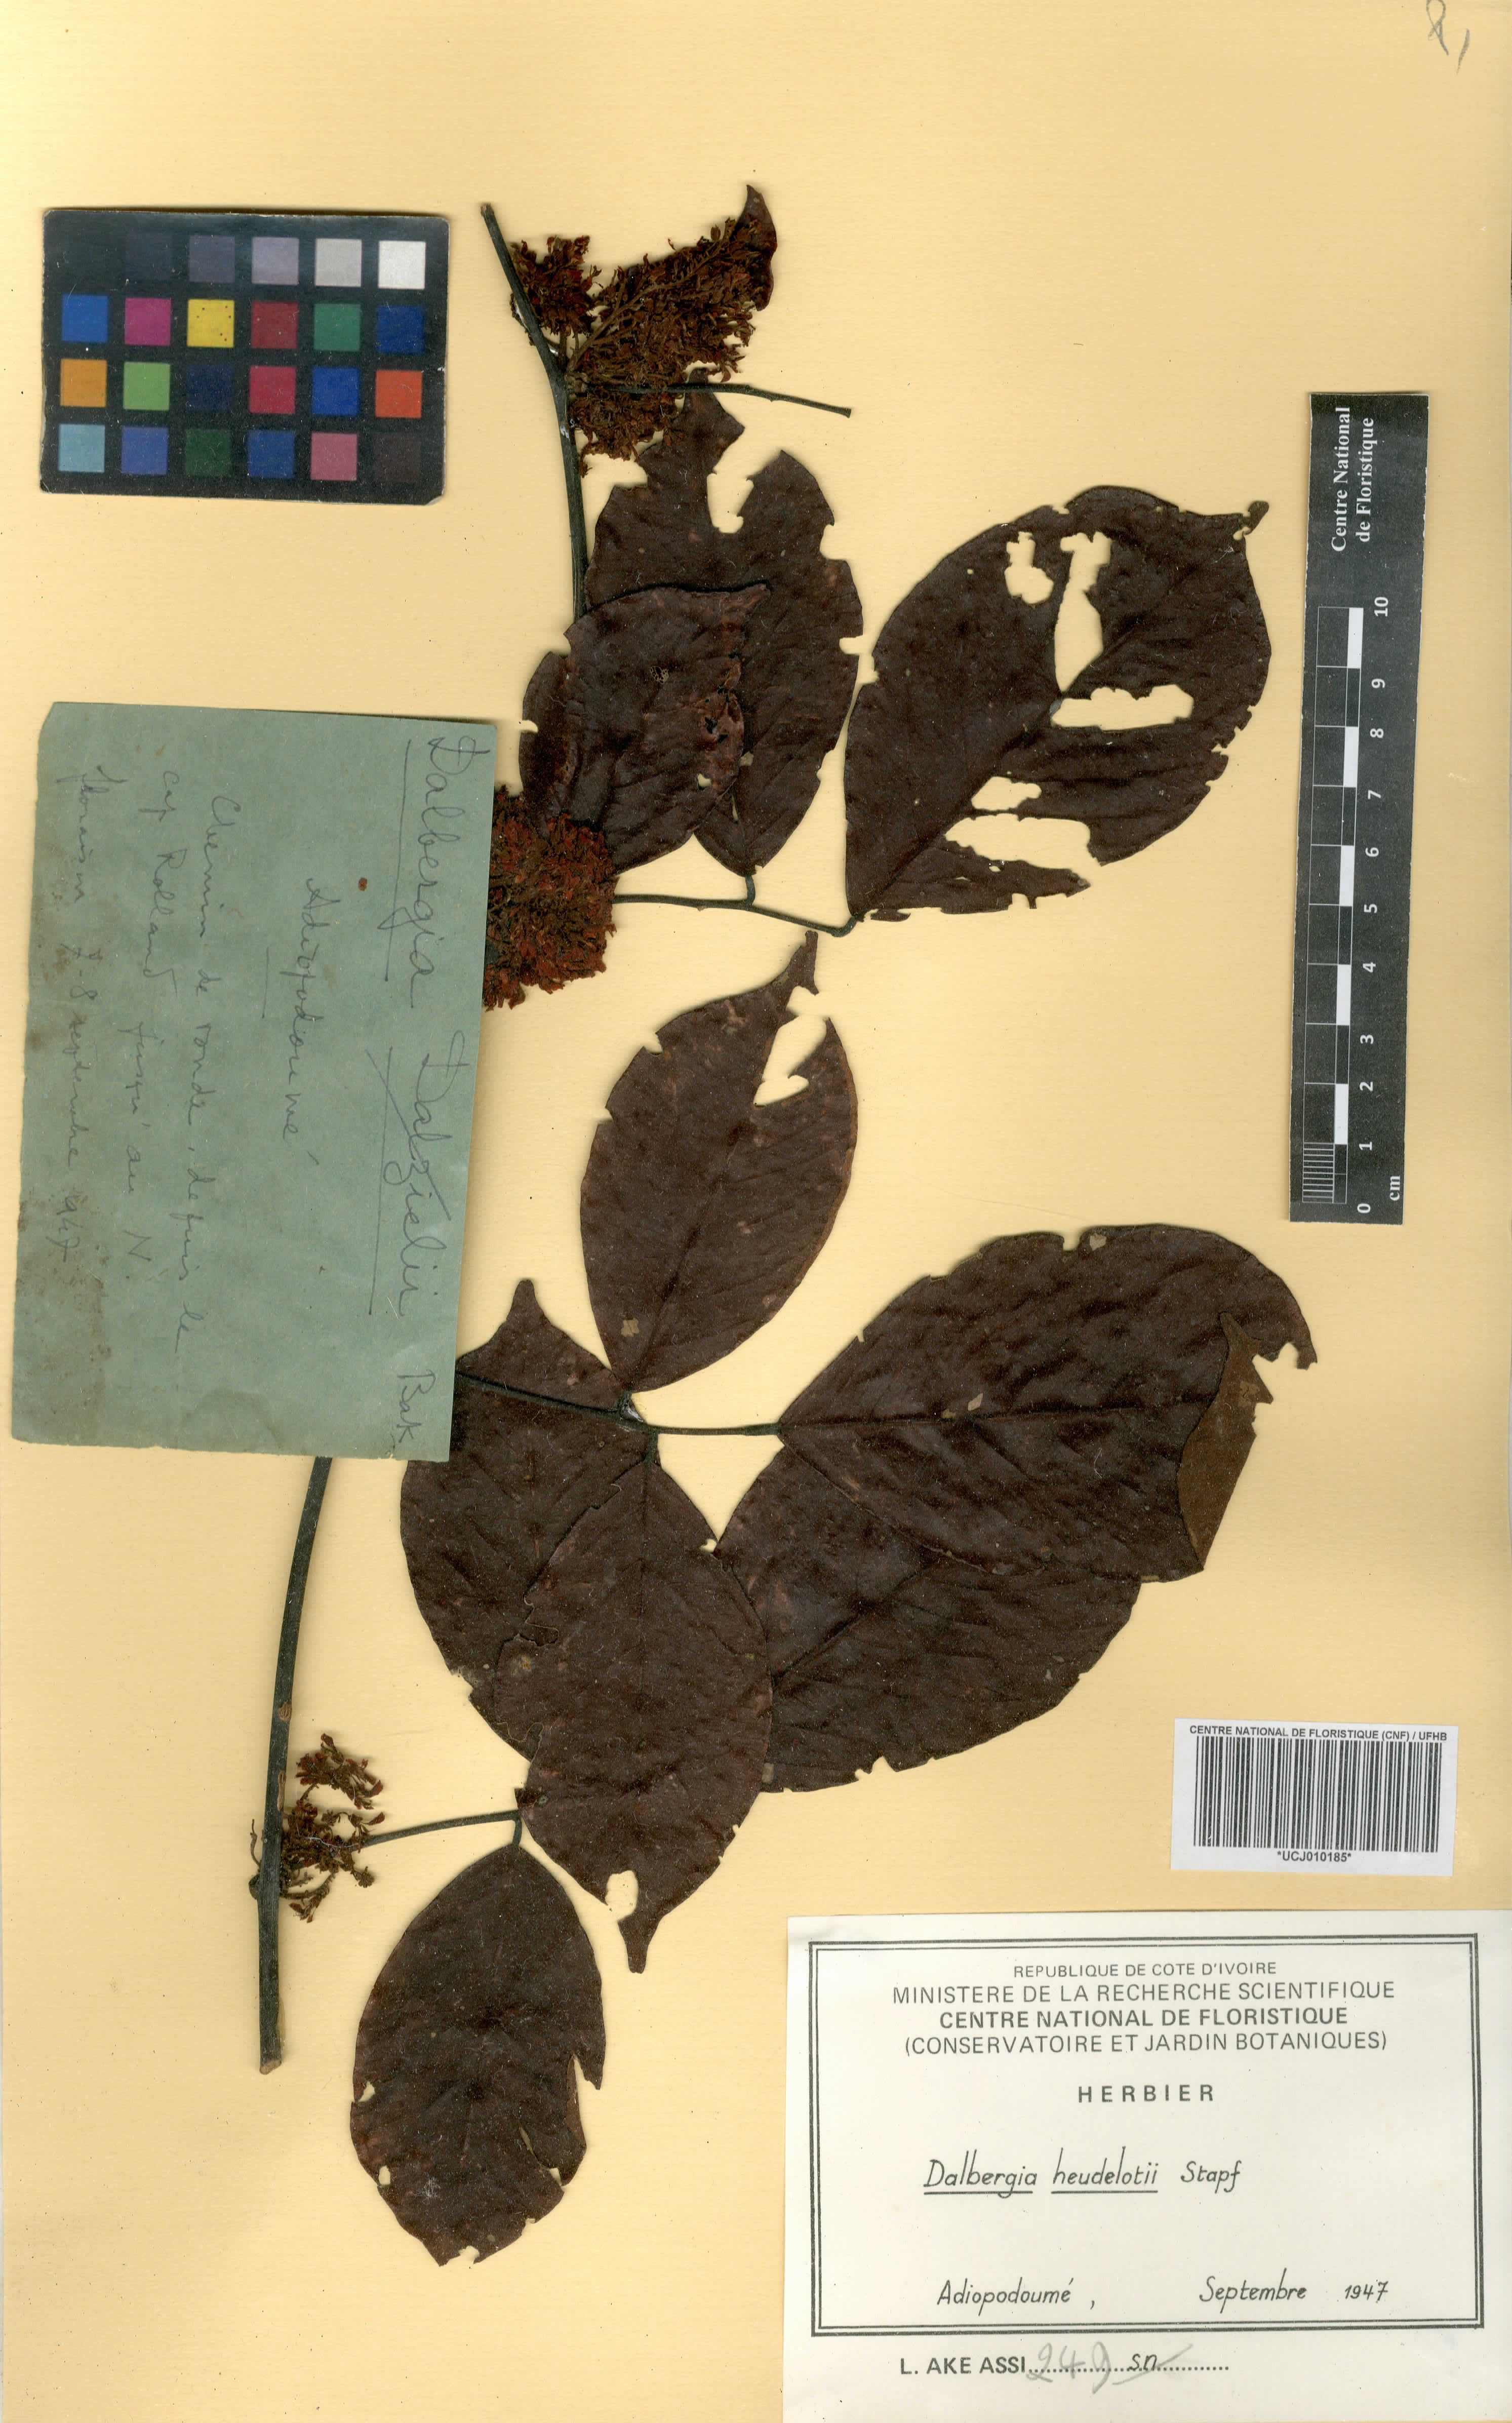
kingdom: Plantae
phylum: Tracheophyta
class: Magnoliopsida
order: Fabales
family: Fabaceae
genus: Dalbergia
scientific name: Dalbergia heudelotii
